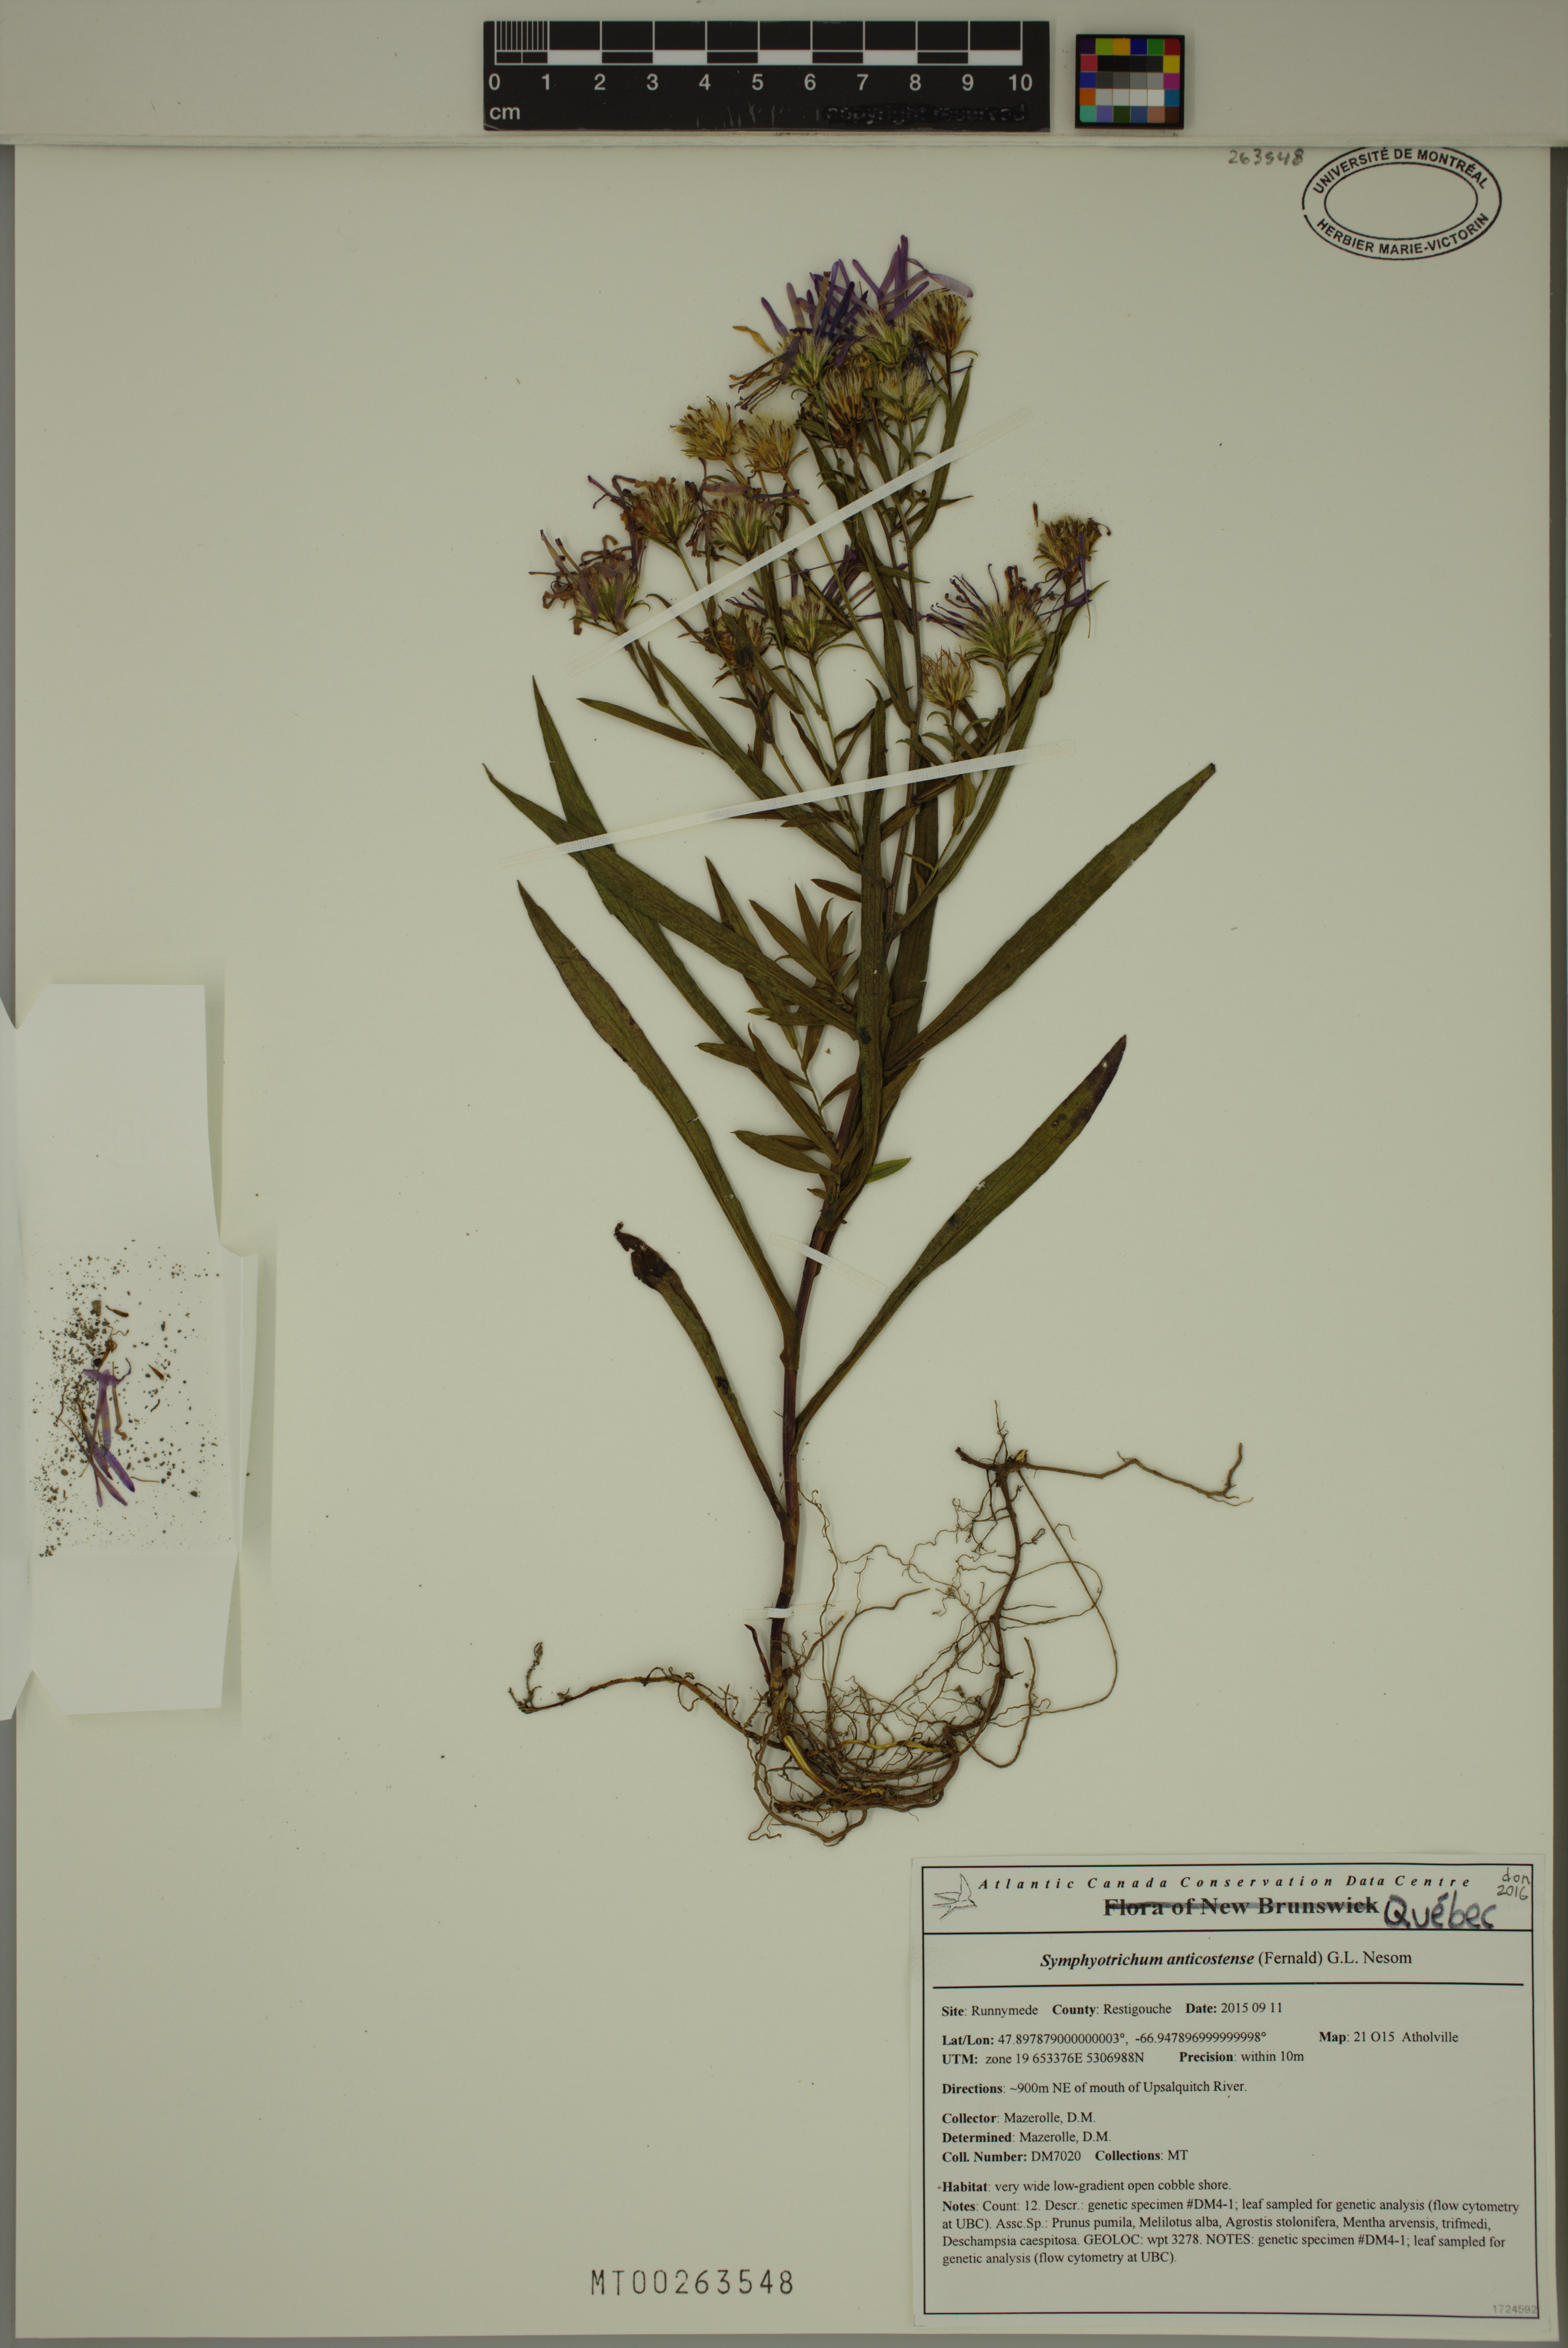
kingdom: Plantae
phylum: Tracheophyta
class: Magnoliopsida
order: Asterales
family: Asteraceae
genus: Symphyotrichum
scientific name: Symphyotrichum anticostense
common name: Anticosti island aster
